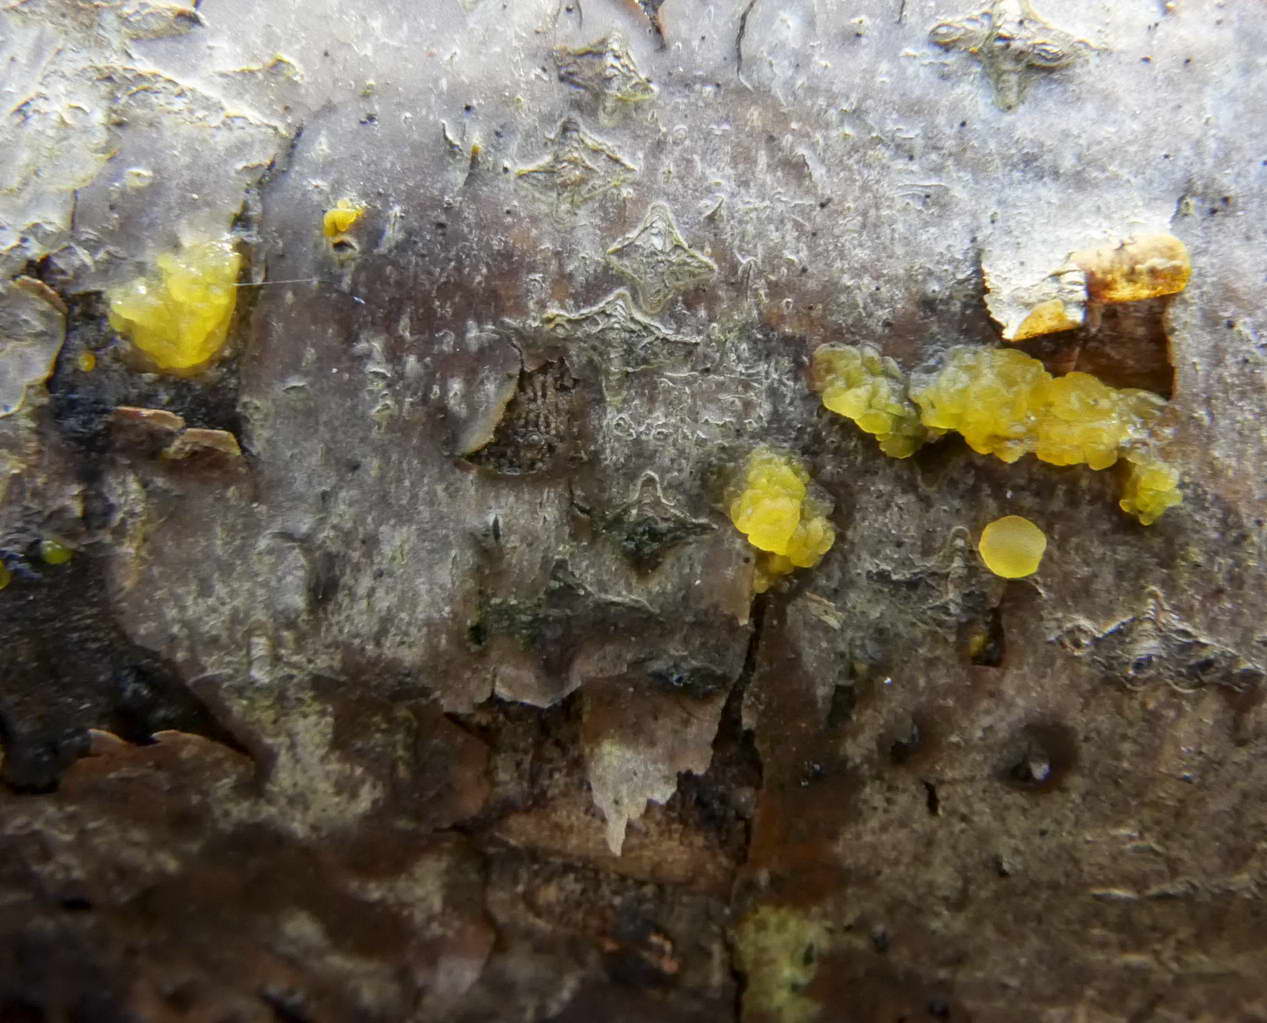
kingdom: Fungi
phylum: Basidiomycota
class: Dacrymycetes
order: Dacrymycetales
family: Dacrymycetaceae
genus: Dacrymyces
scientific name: Dacrymyces lacrymalis
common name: rynket tåresvamp
